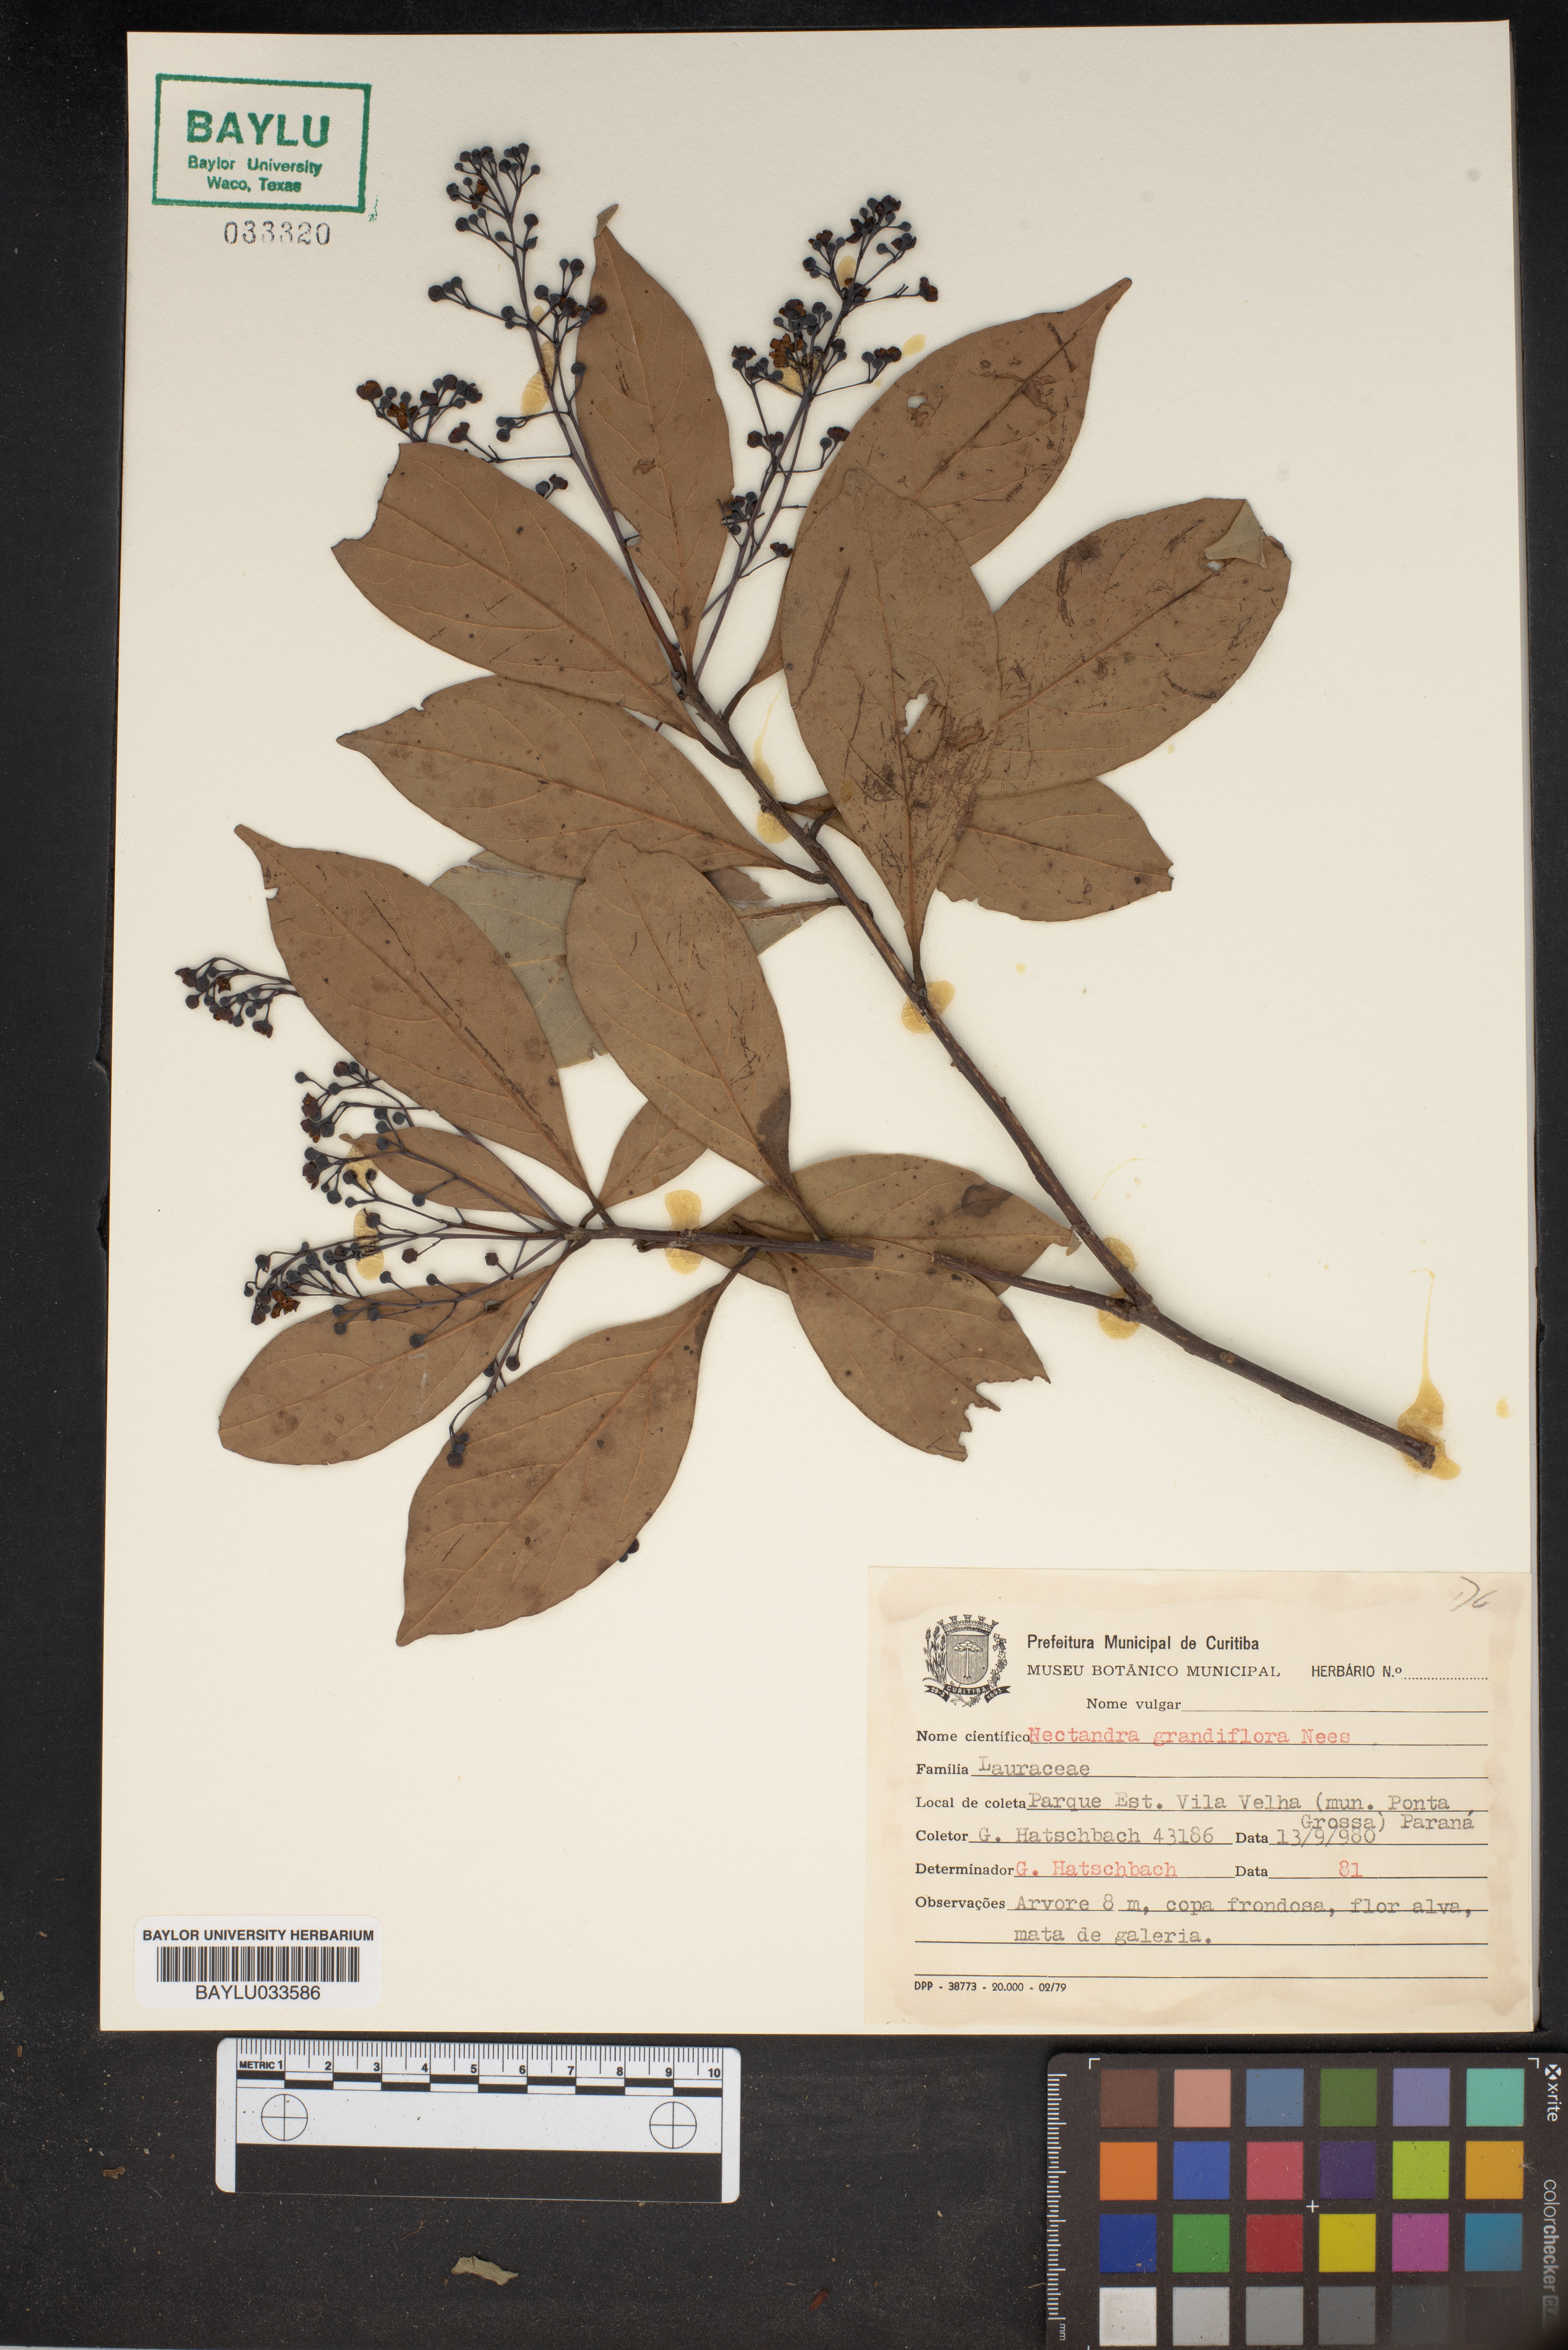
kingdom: Plantae
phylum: Tracheophyta
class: Magnoliopsida
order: Laurales
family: Lauraceae
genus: Nectandra
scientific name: Nectandra grandiflora
